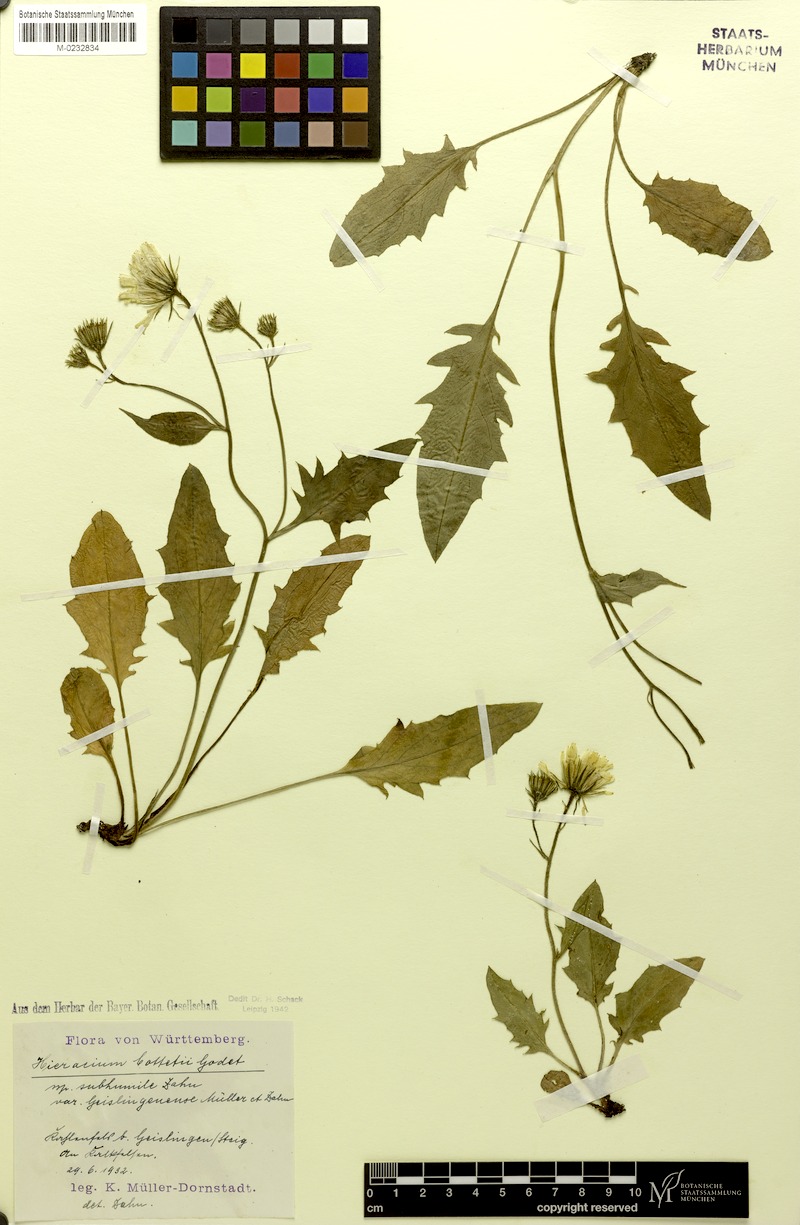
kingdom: Plantae
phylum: Tracheophyta
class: Magnoliopsida
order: Asterales
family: Asteraceae
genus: Hieracium
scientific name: Hieracium cottetii
